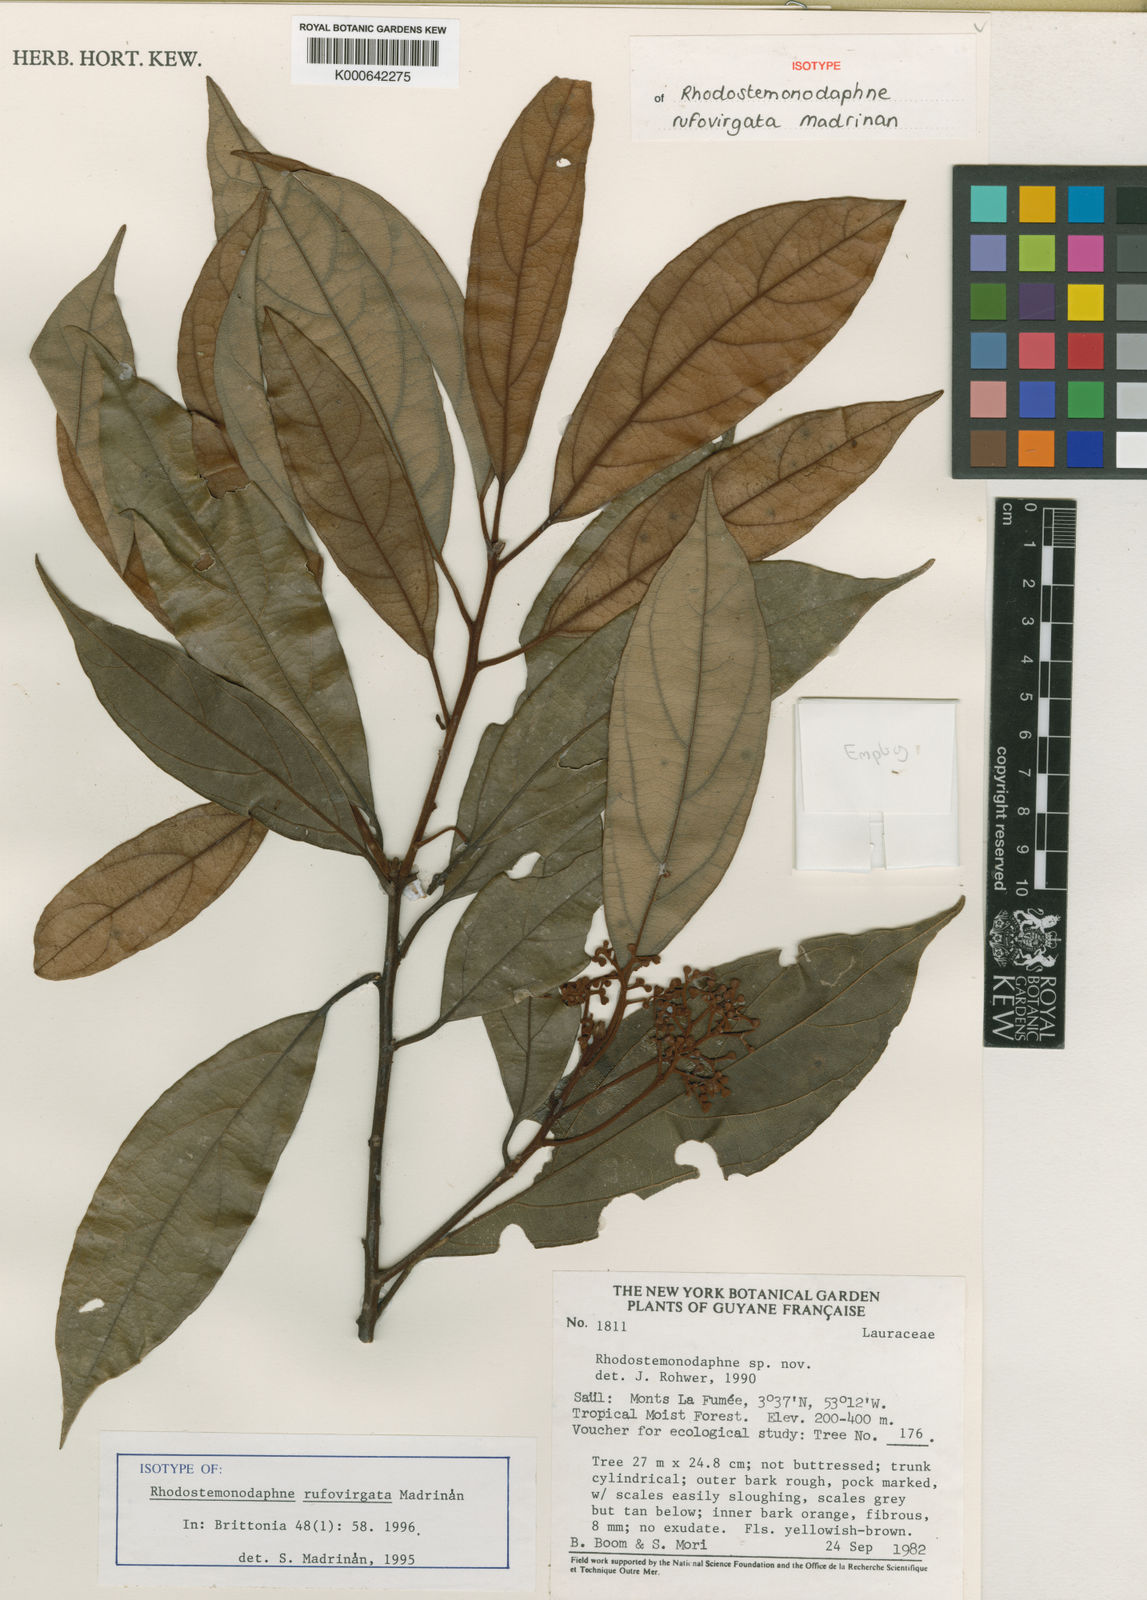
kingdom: Plantae
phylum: Tracheophyta
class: Magnoliopsida
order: Laurales
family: Lauraceae
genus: Rhodostemonodaphne
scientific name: Rhodostemonodaphne
